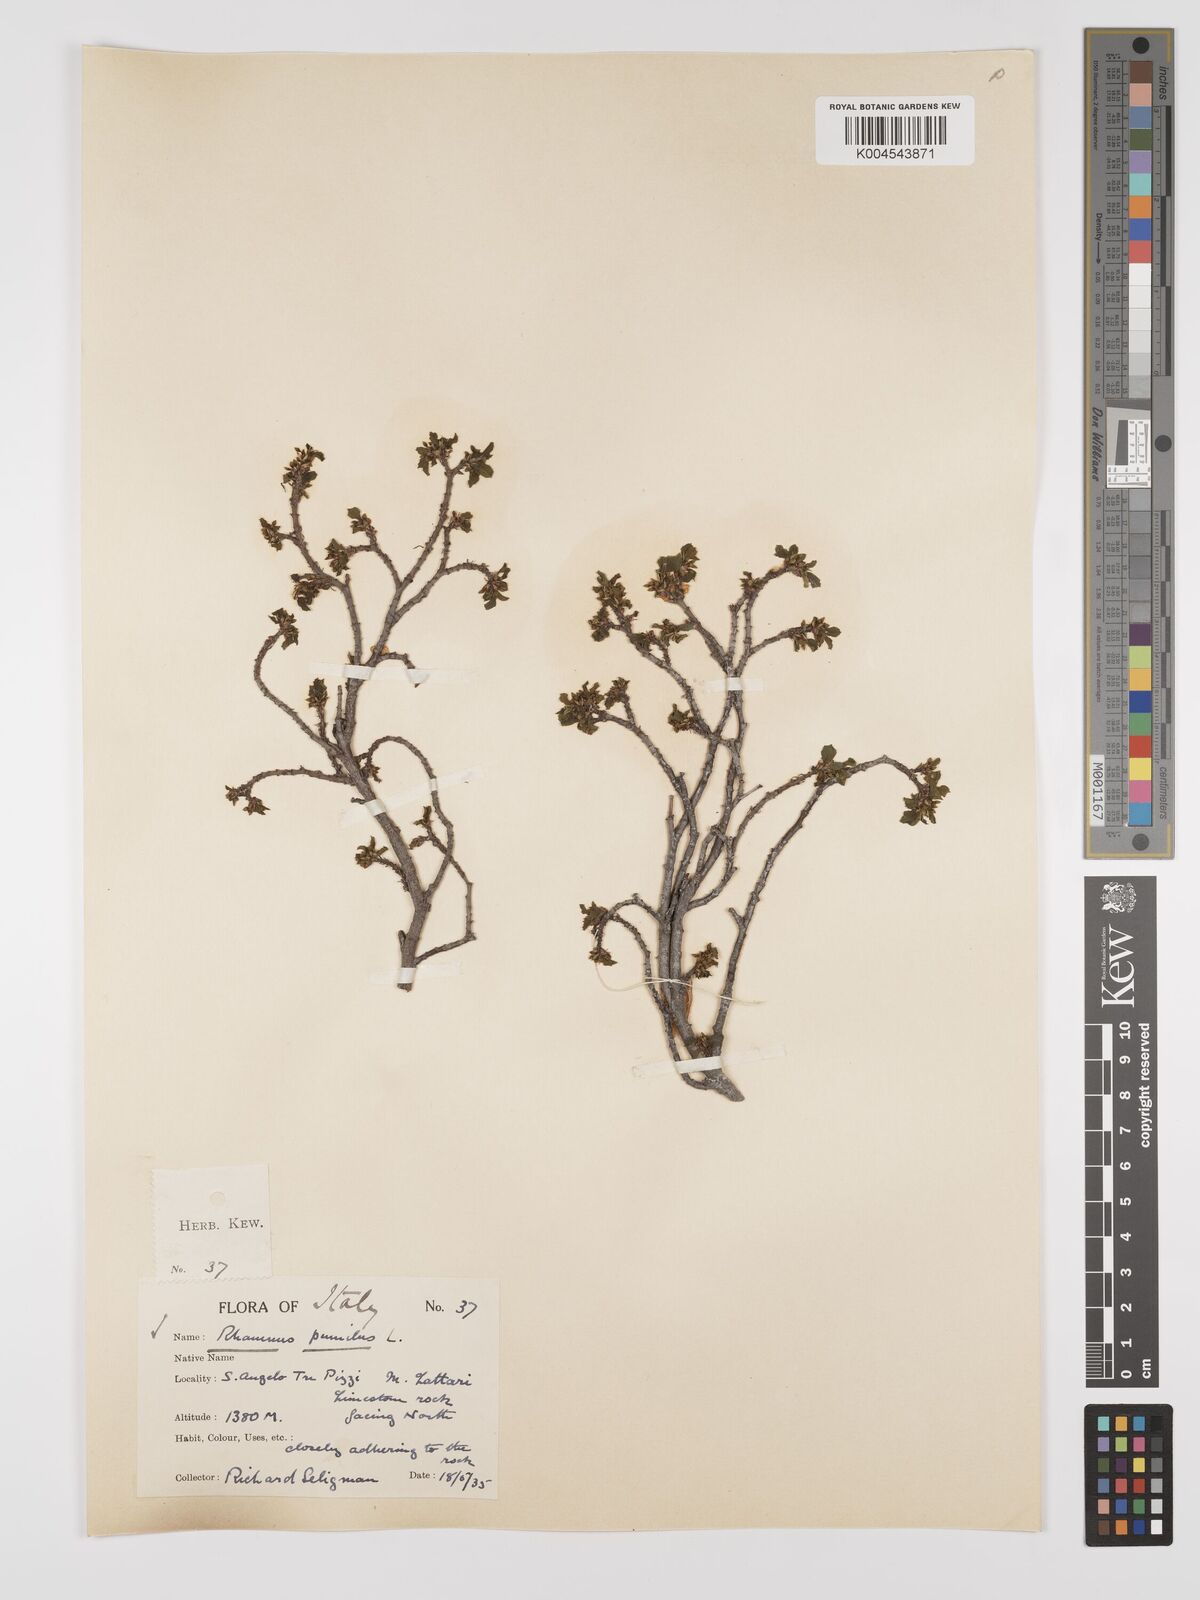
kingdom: Plantae
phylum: Tracheophyta
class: Magnoliopsida
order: Rosales
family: Rhamnaceae
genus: Rhamnus
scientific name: Rhamnus
